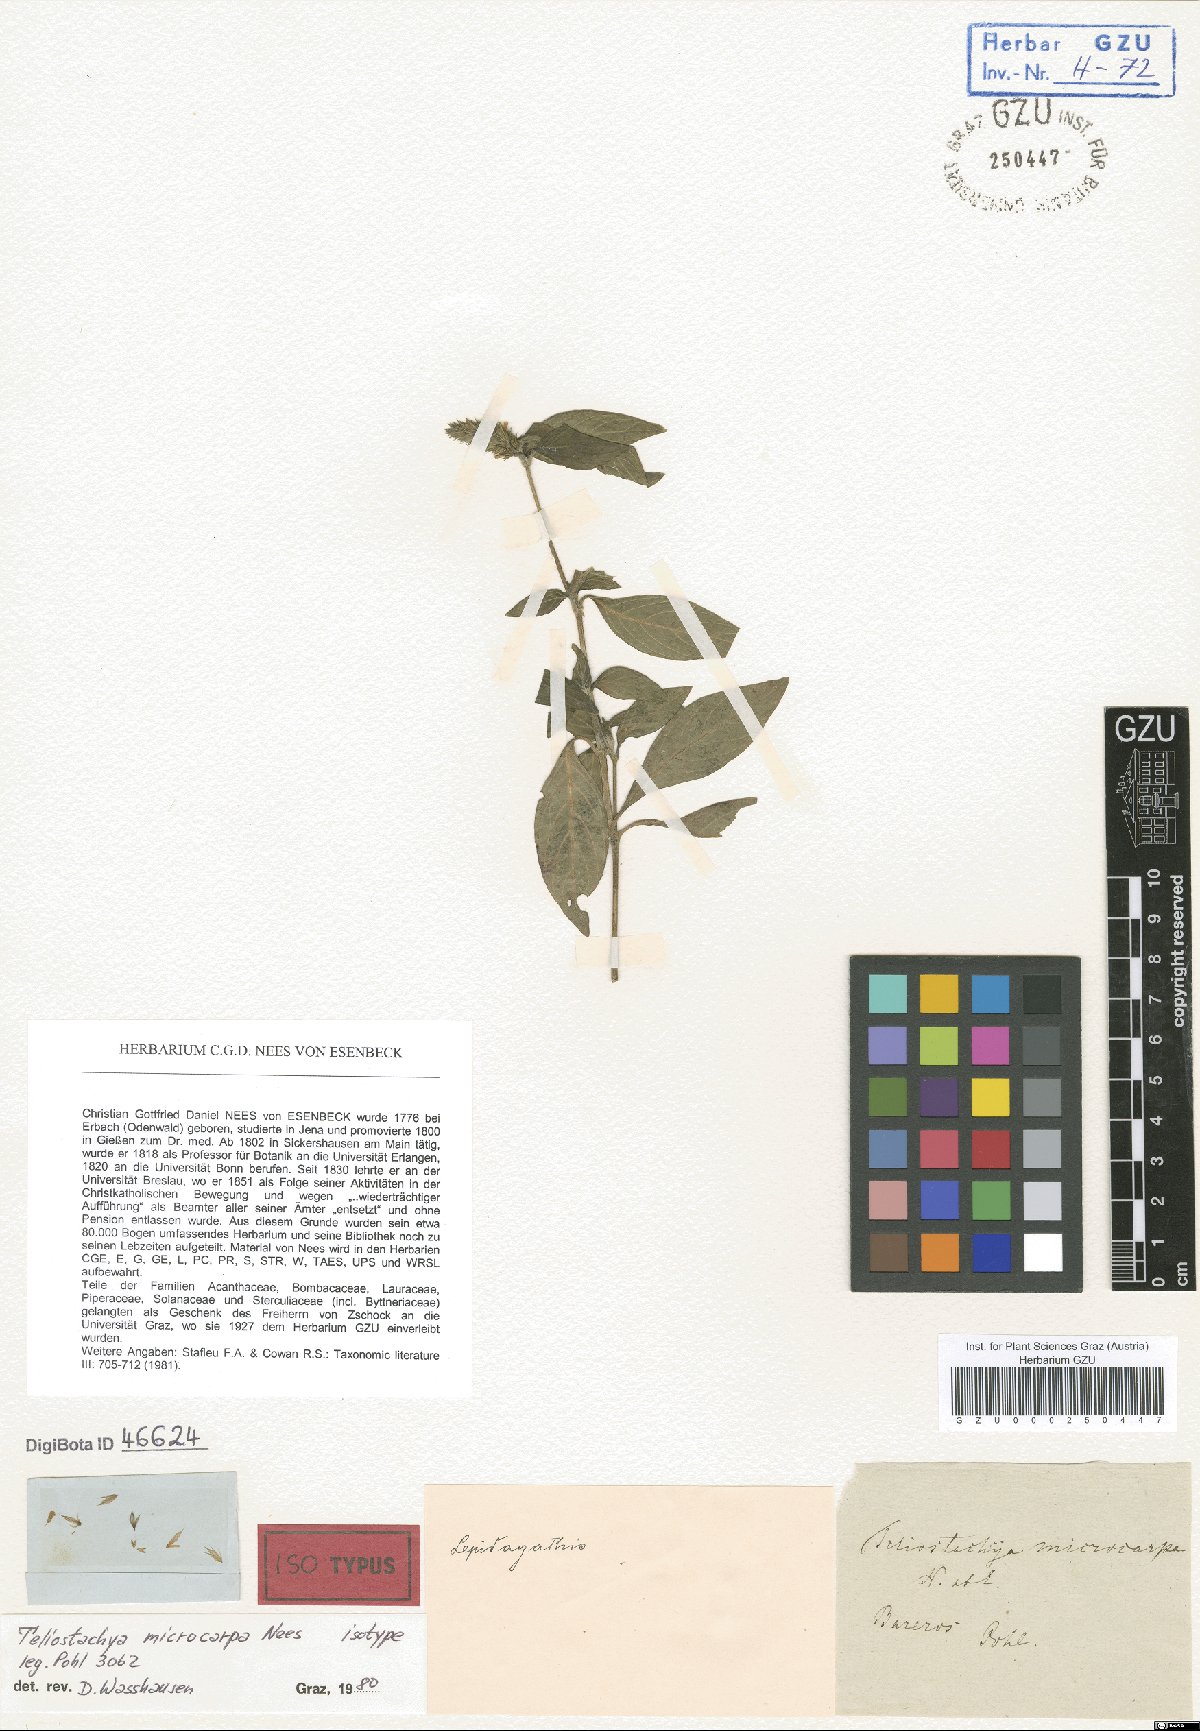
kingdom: Plantae
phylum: Tracheophyta
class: Magnoliopsida
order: Lamiales
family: Acanthaceae
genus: Lepidagathis
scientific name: Lepidagathis Teliostachya microcarpa
